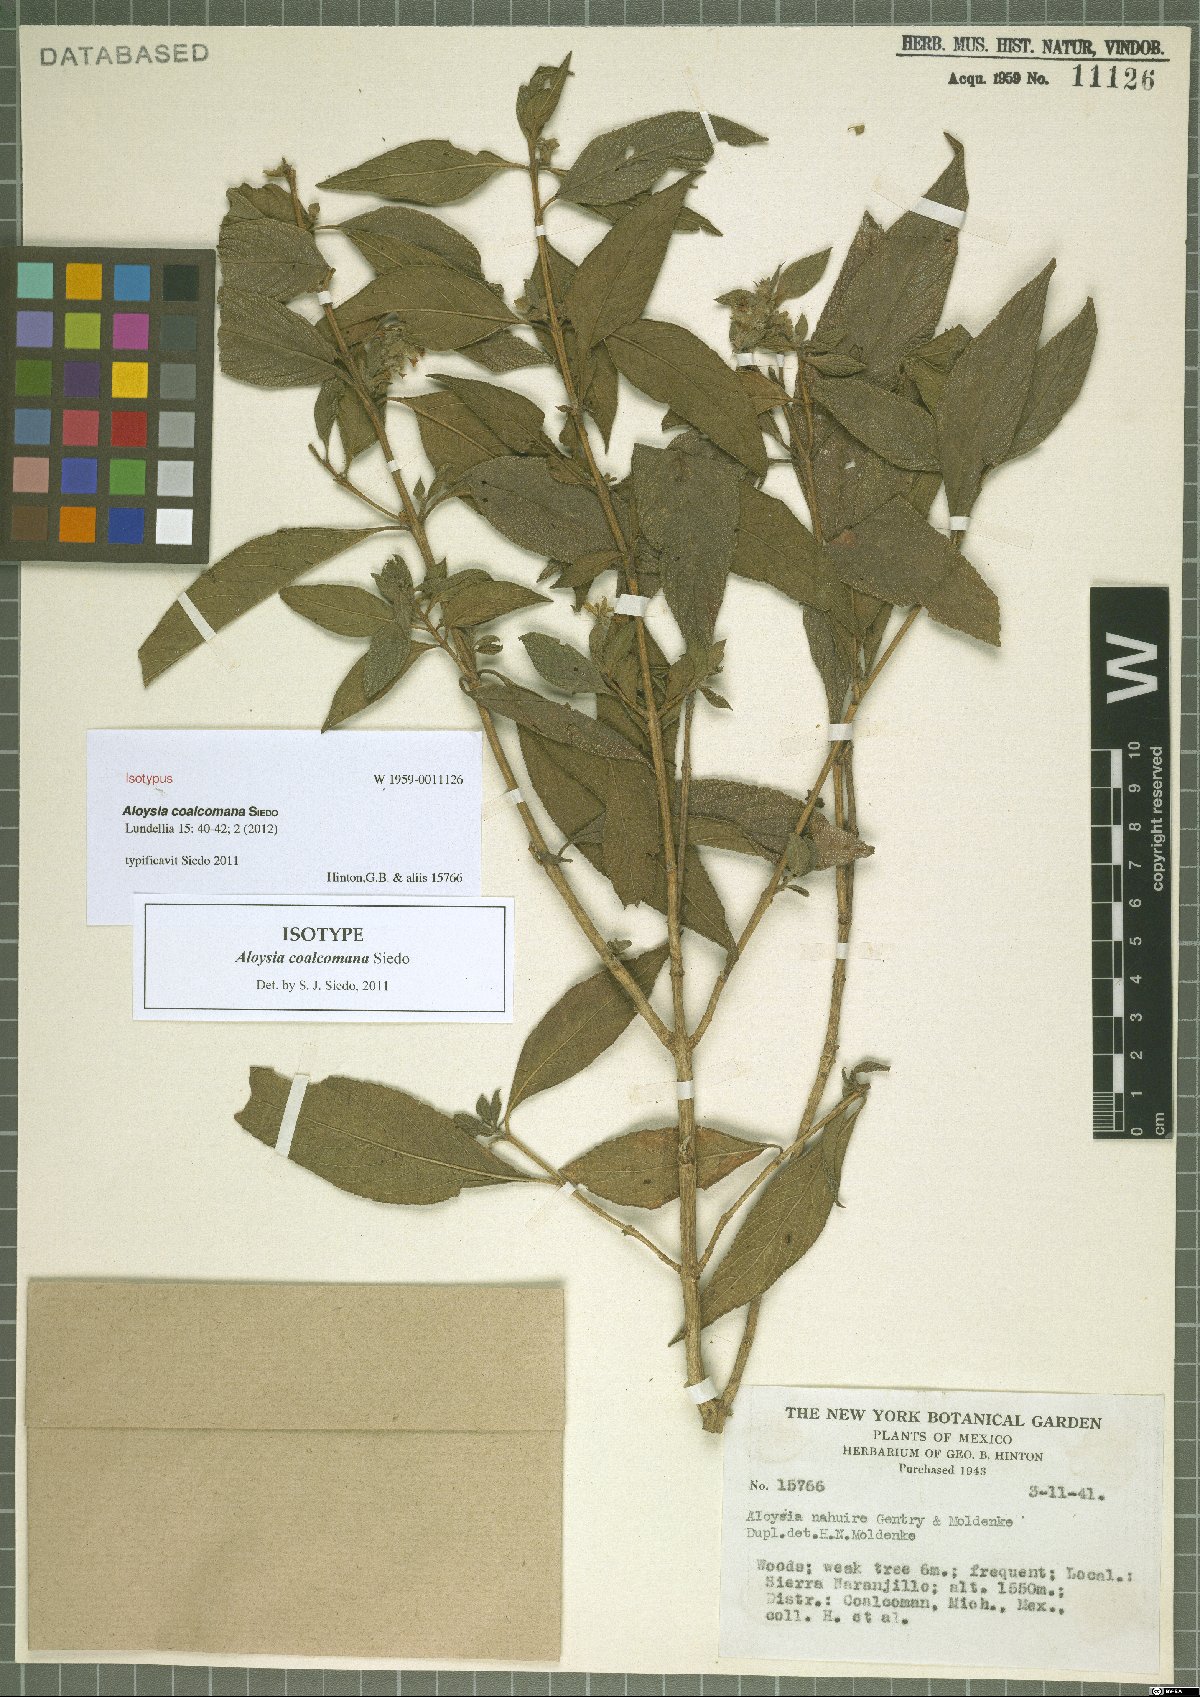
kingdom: Plantae
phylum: Tracheophyta
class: Magnoliopsida
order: Lamiales
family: Verbenaceae
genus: Aloysia
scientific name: Aloysia coalcomana
